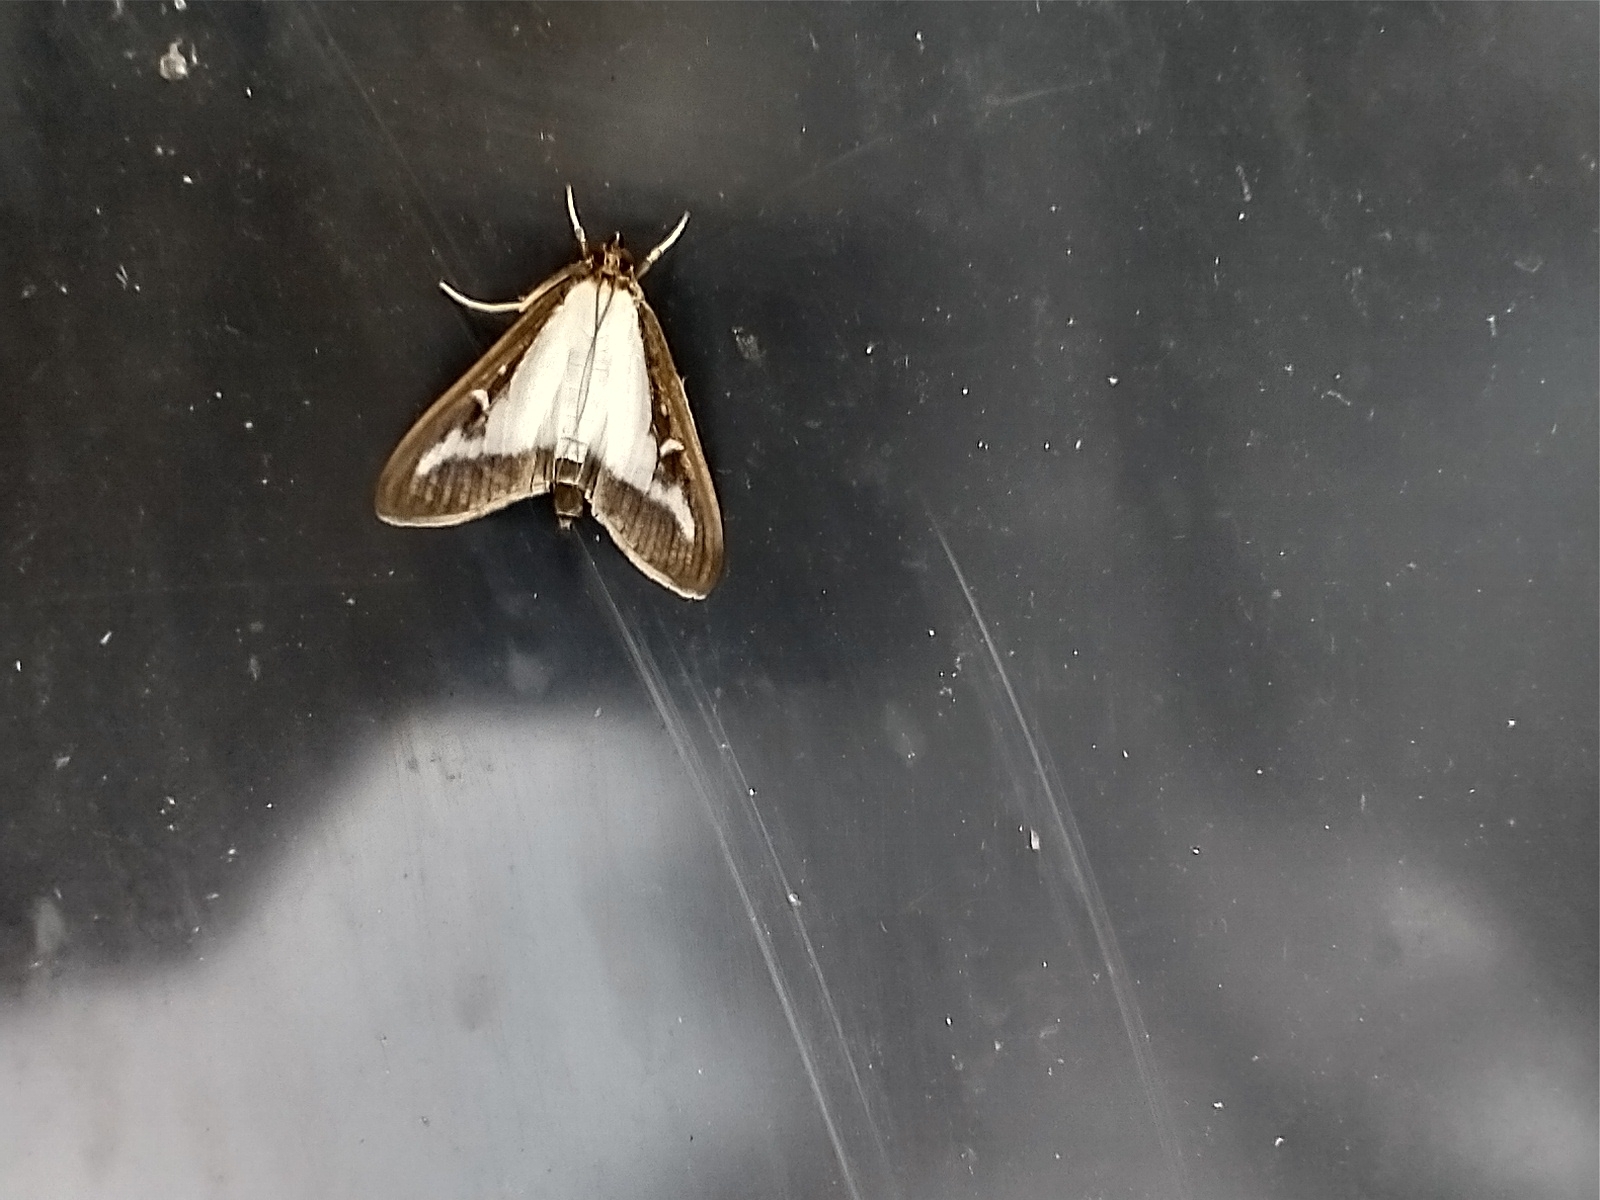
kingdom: Animalia
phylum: Arthropoda
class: Insecta
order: Lepidoptera
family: Crambidae
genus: Cydalima
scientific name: Cydalima perspectalis
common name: Buksbomhalvmøl
